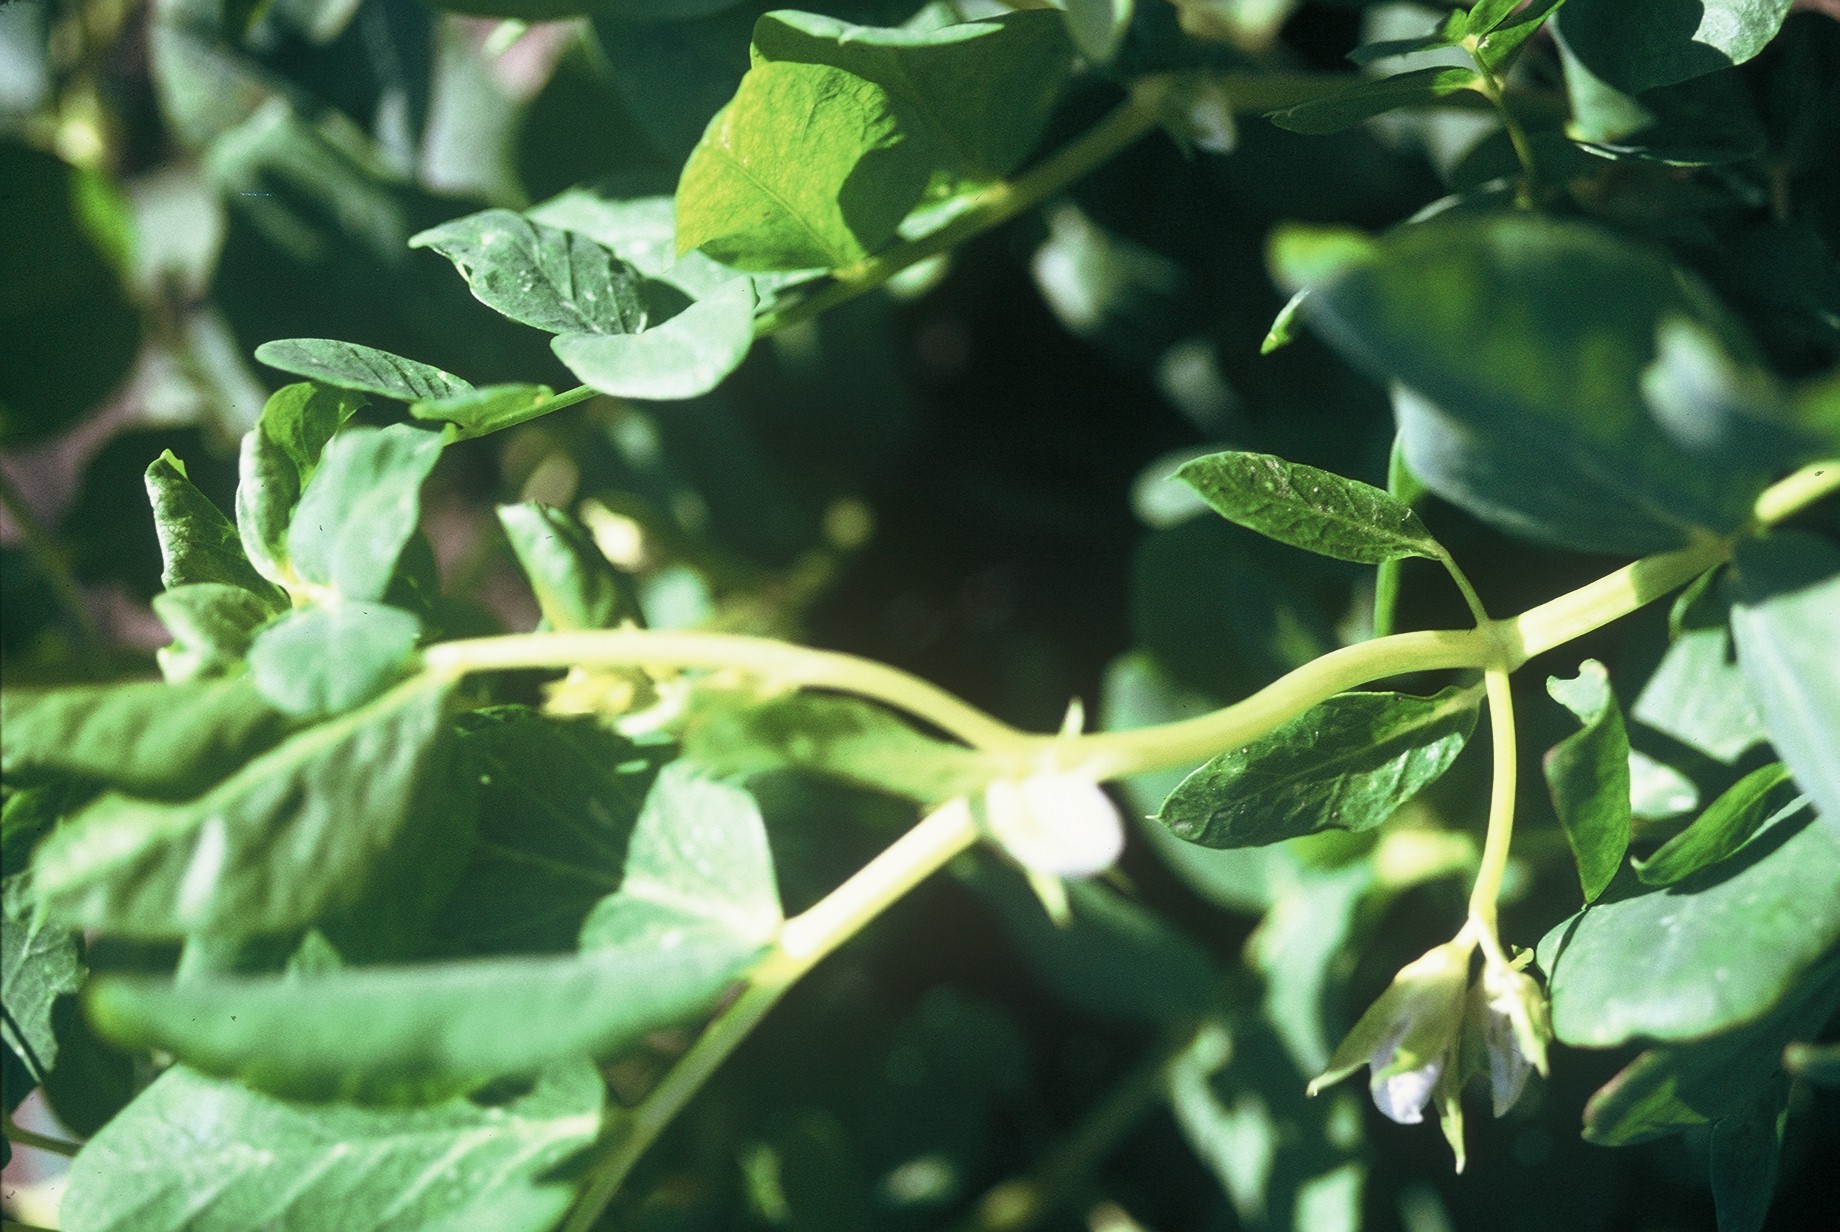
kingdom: Plantae
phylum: Tracheophyta
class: Magnoliopsida
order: Fabales
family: Fabaceae
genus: Lathyrus
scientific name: Lathyrus oleraceus
